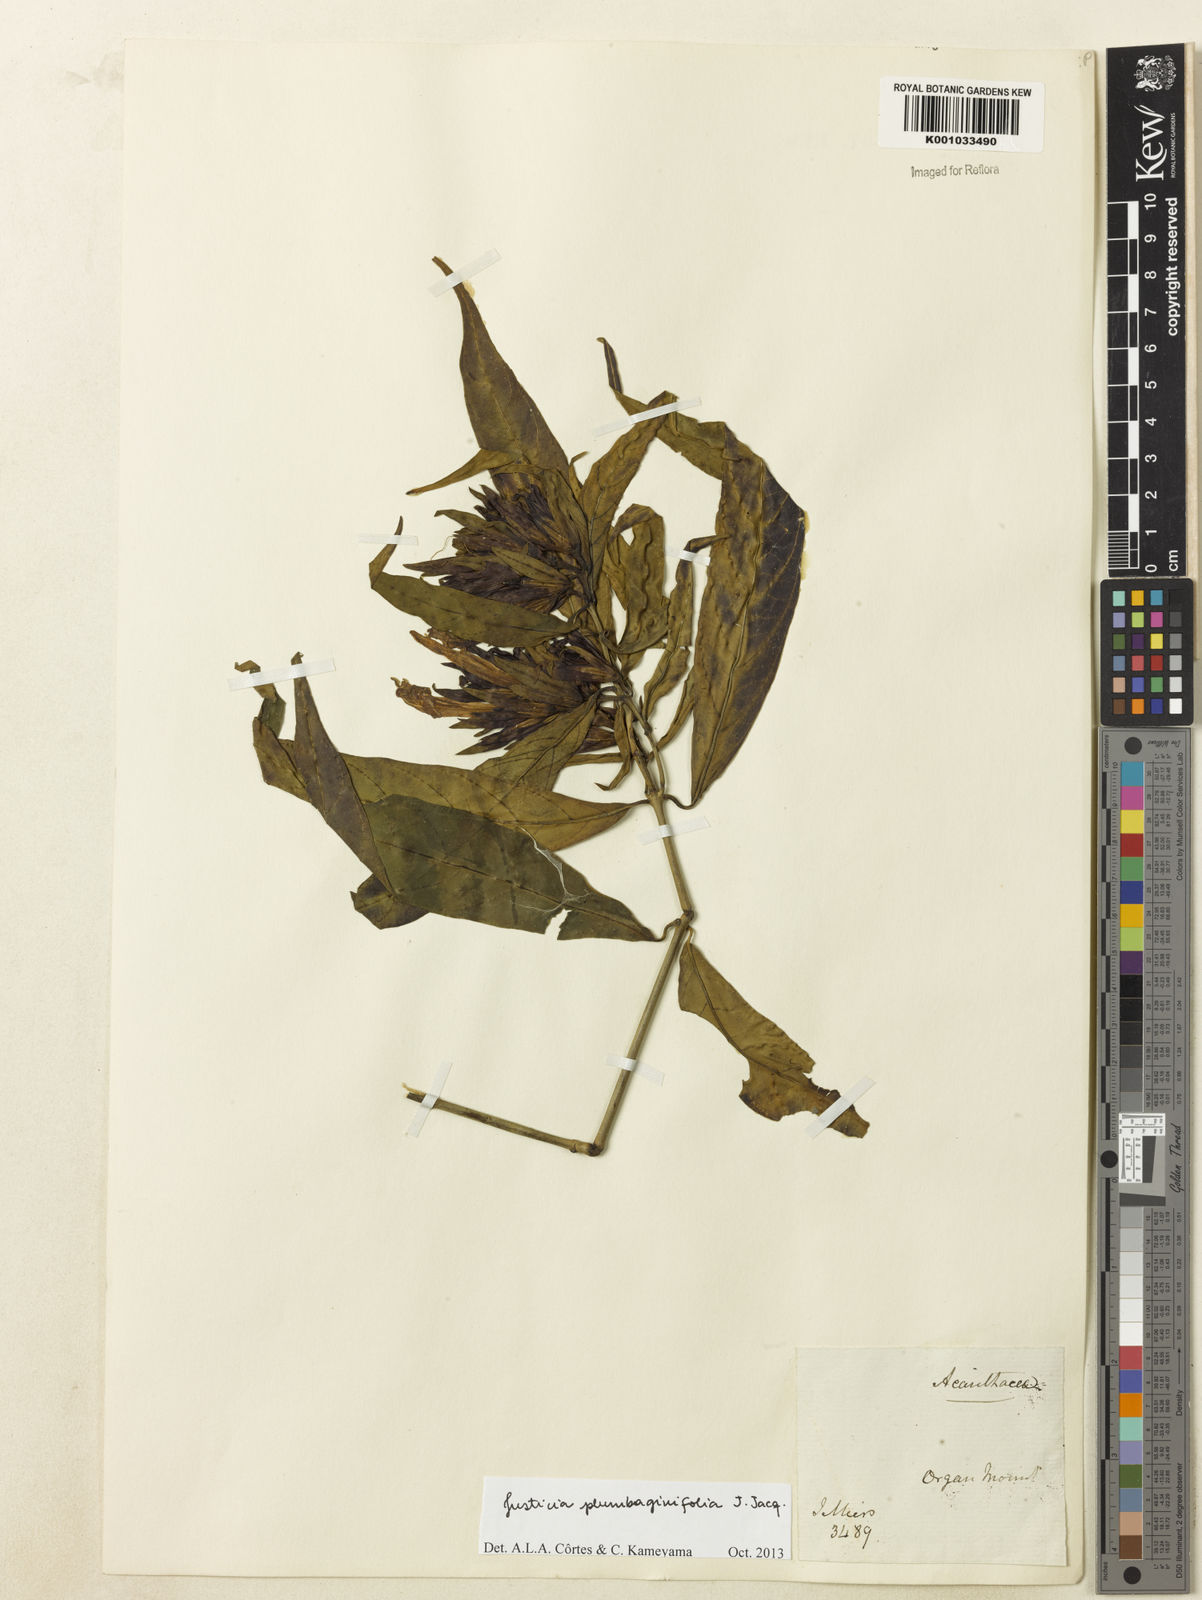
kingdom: Plantae
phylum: Tracheophyta
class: Magnoliopsida
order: Lamiales
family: Acanthaceae
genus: Justicia
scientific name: Justicia plumbaginifolia
